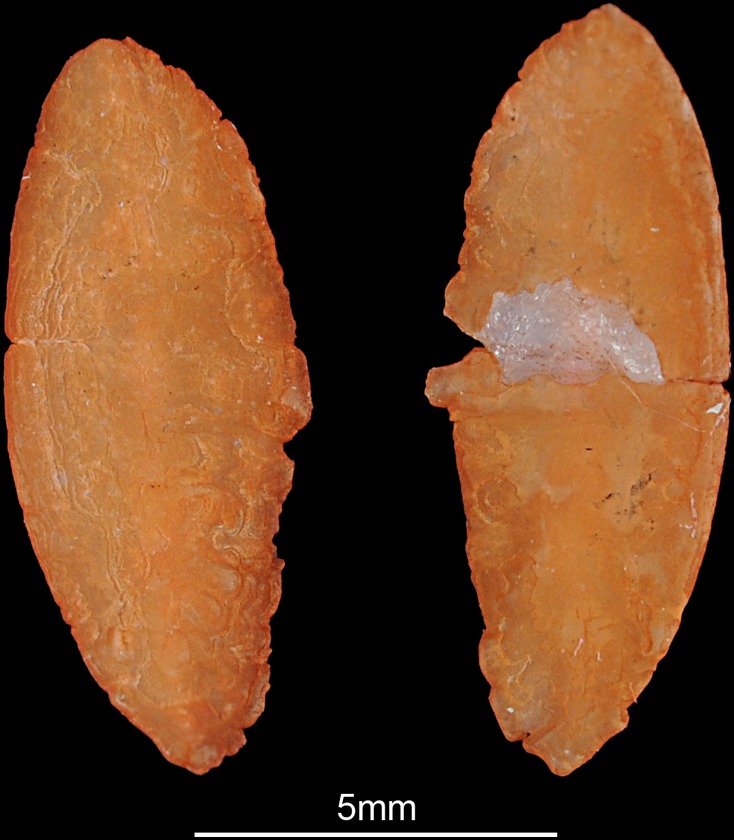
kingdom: Animalia
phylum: Chordata
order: Perciformes
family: Percidae
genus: Zingel
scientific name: Zingel zingel
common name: Zingel
